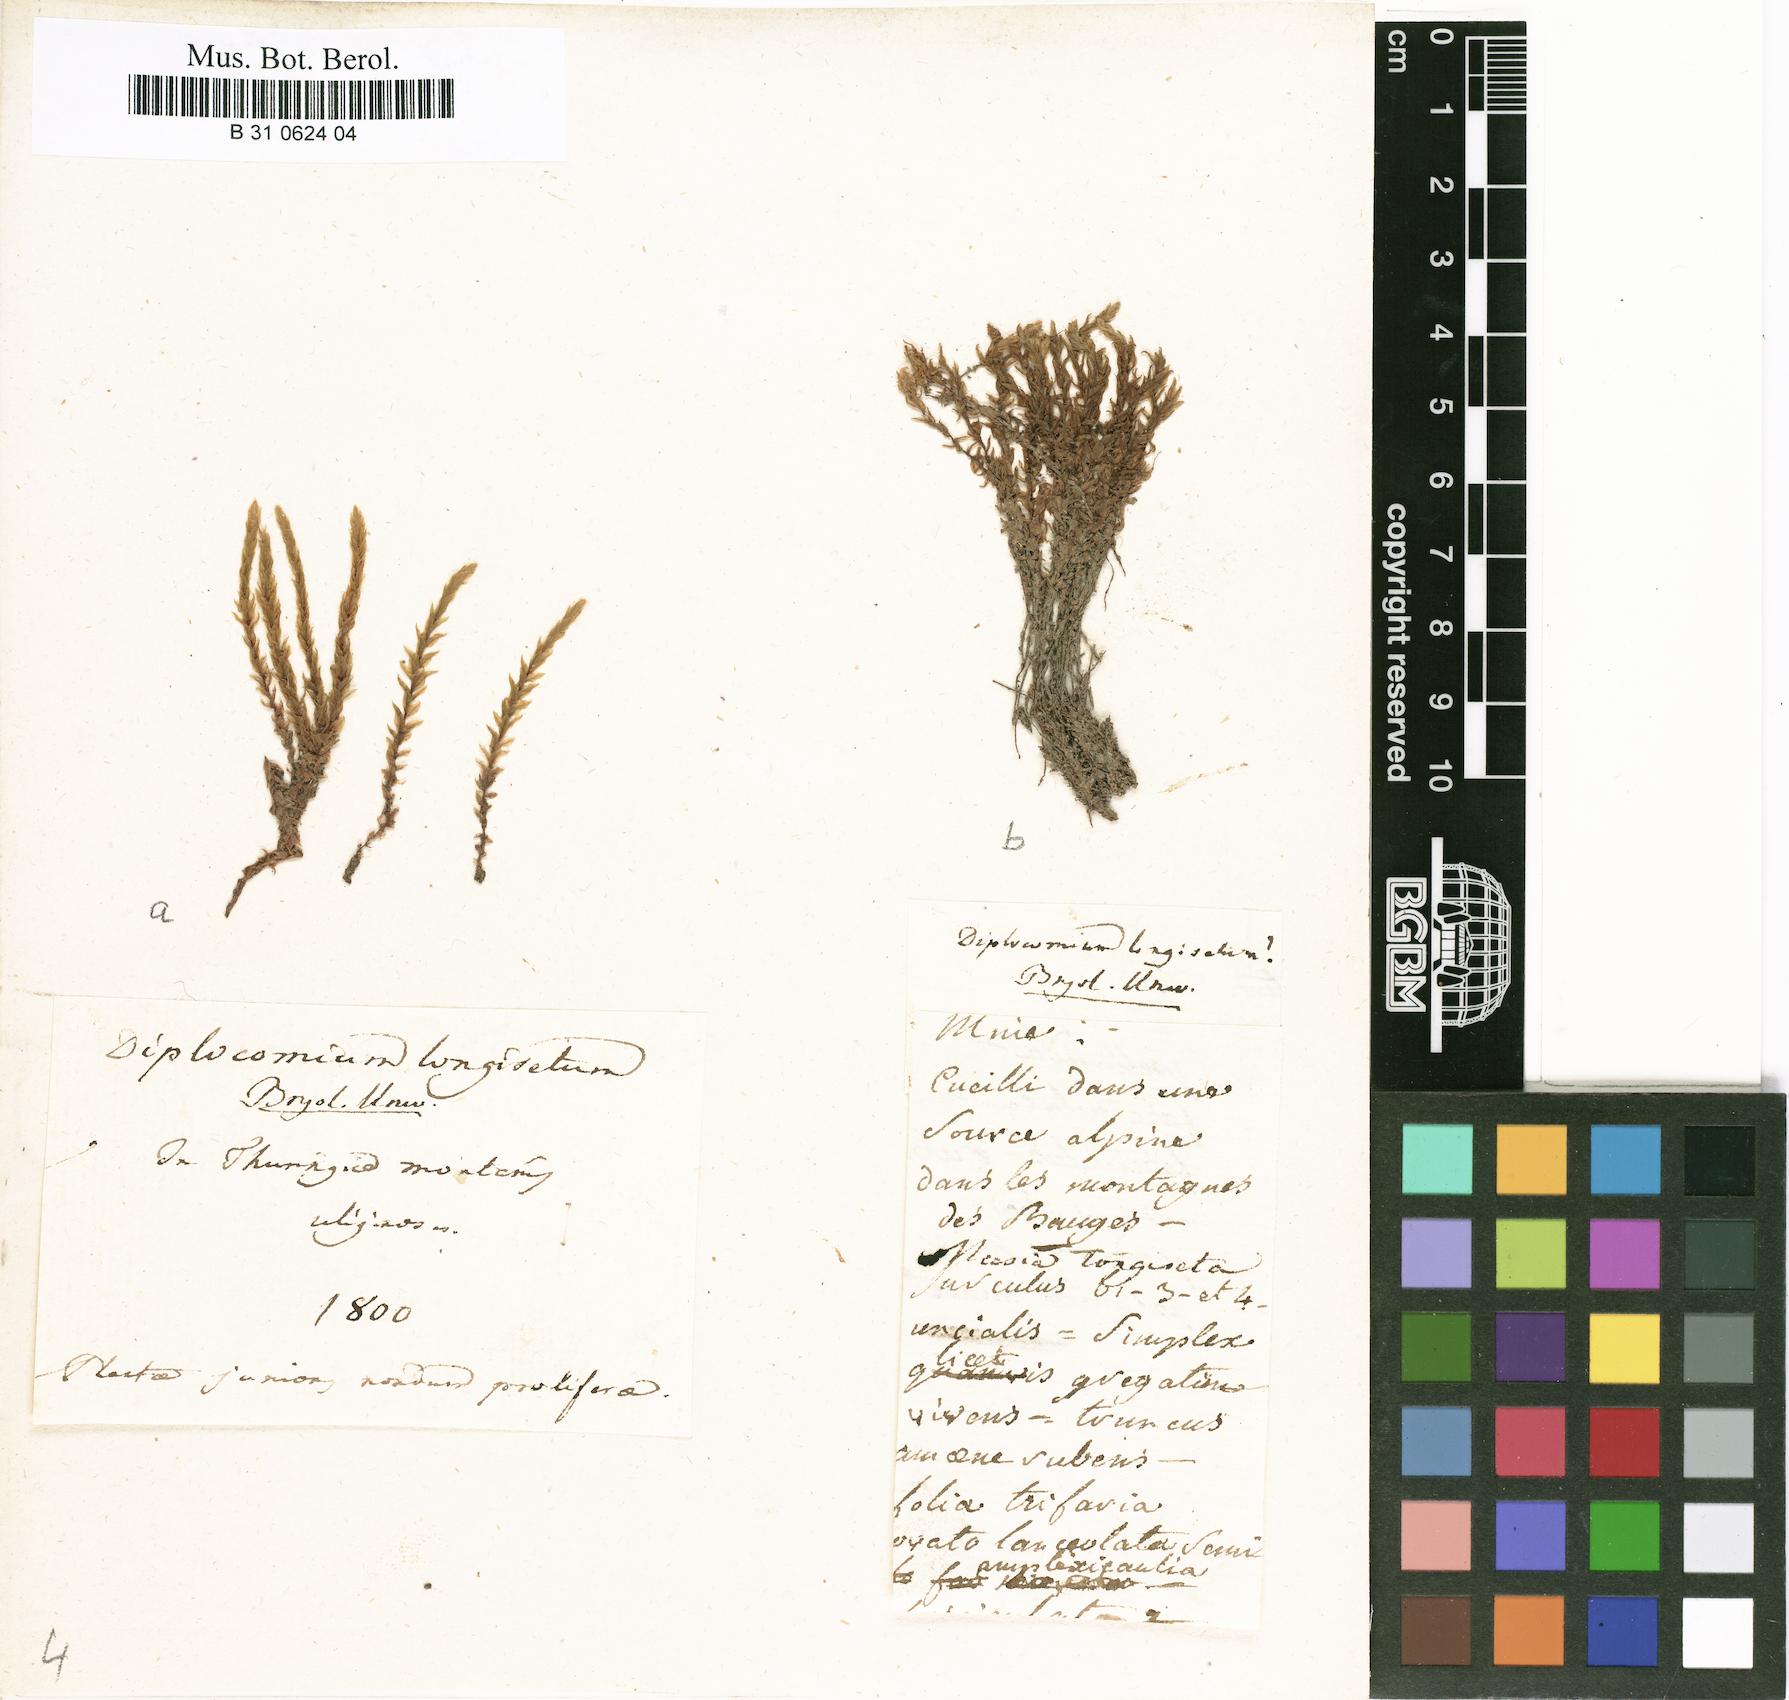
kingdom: Plantae
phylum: Bryophyta
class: Bryopsida
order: Splachnales
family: Meesiaceae
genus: Meesia
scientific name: Meesia longiseta
